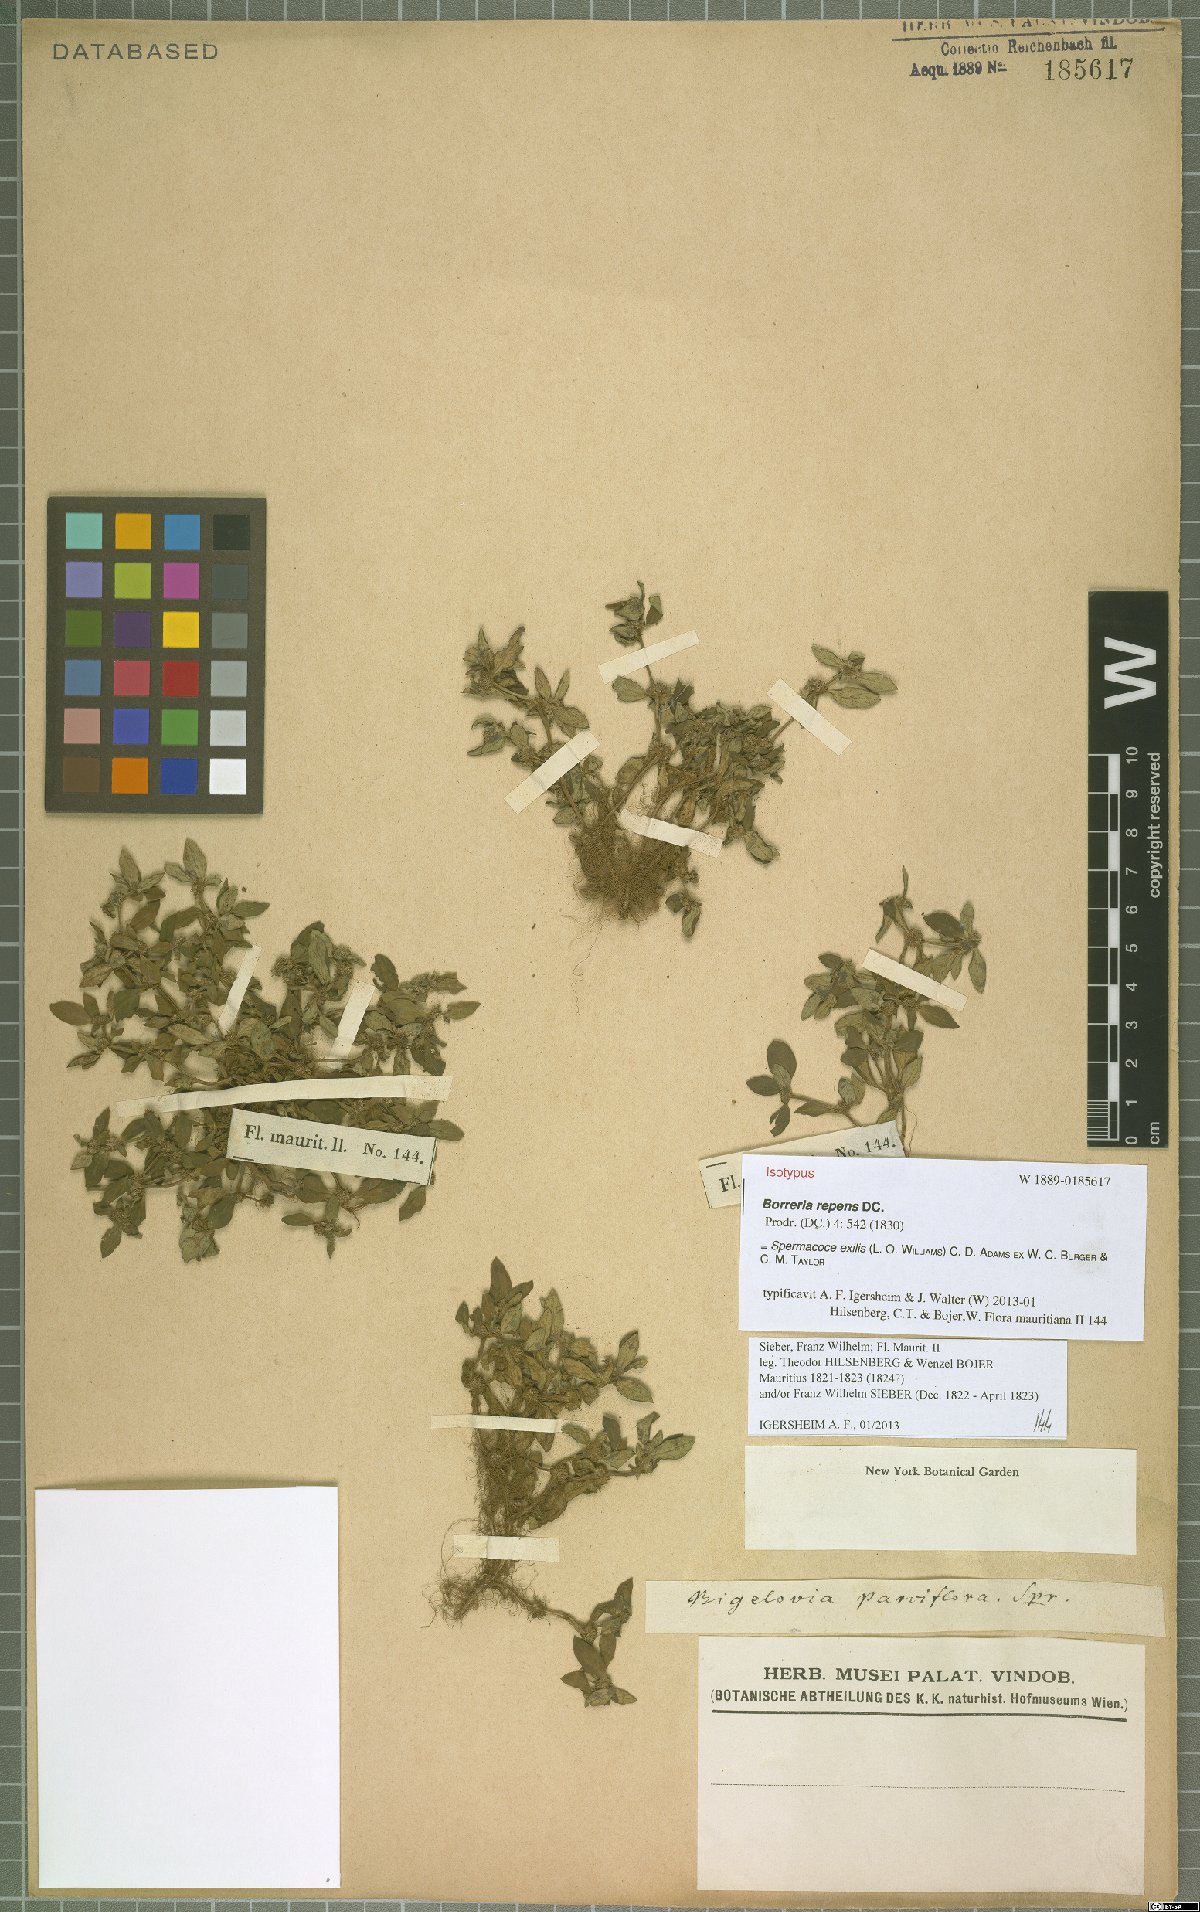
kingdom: Plantae
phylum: Tracheophyta
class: Magnoliopsida
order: Gentianales
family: Rubiaceae
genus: Spermacoce
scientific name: Spermacoce exilis
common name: Pacific false buttonweed
